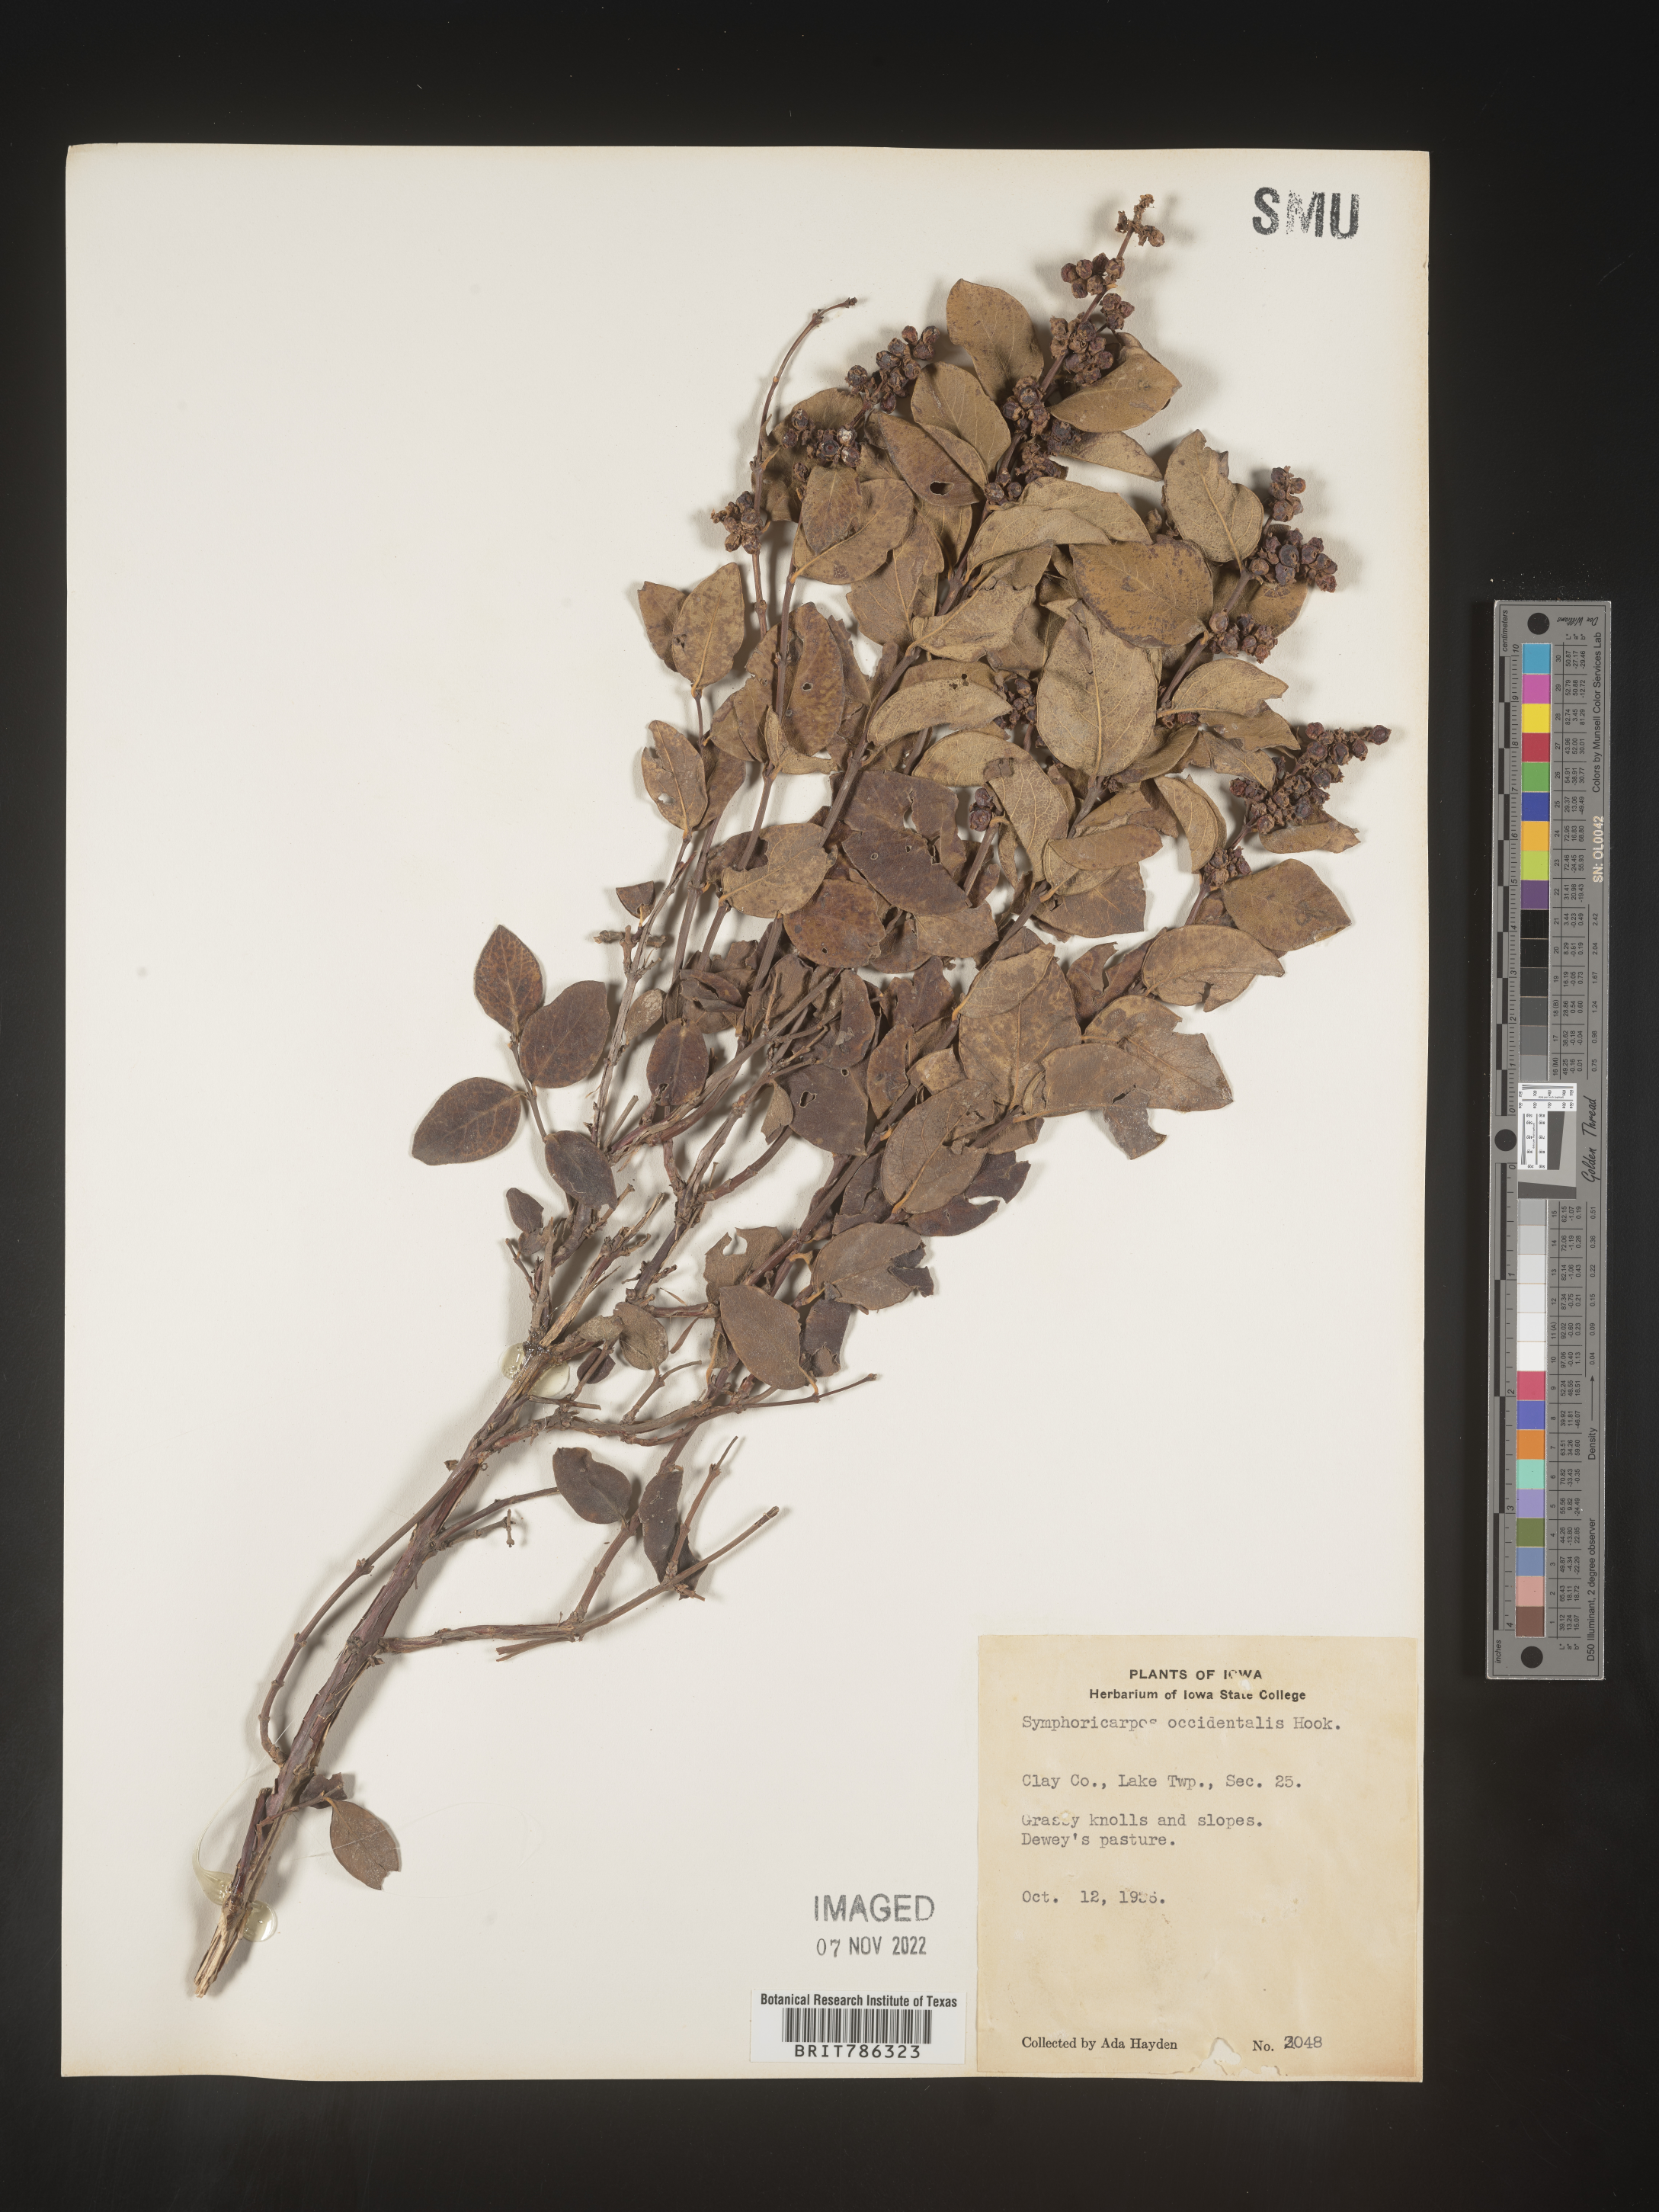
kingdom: Plantae
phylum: Tracheophyta
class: Magnoliopsida
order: Dipsacales
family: Caprifoliaceae
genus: Symphoricarpos
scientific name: Symphoricarpos occidentalis
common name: Wolfberry
